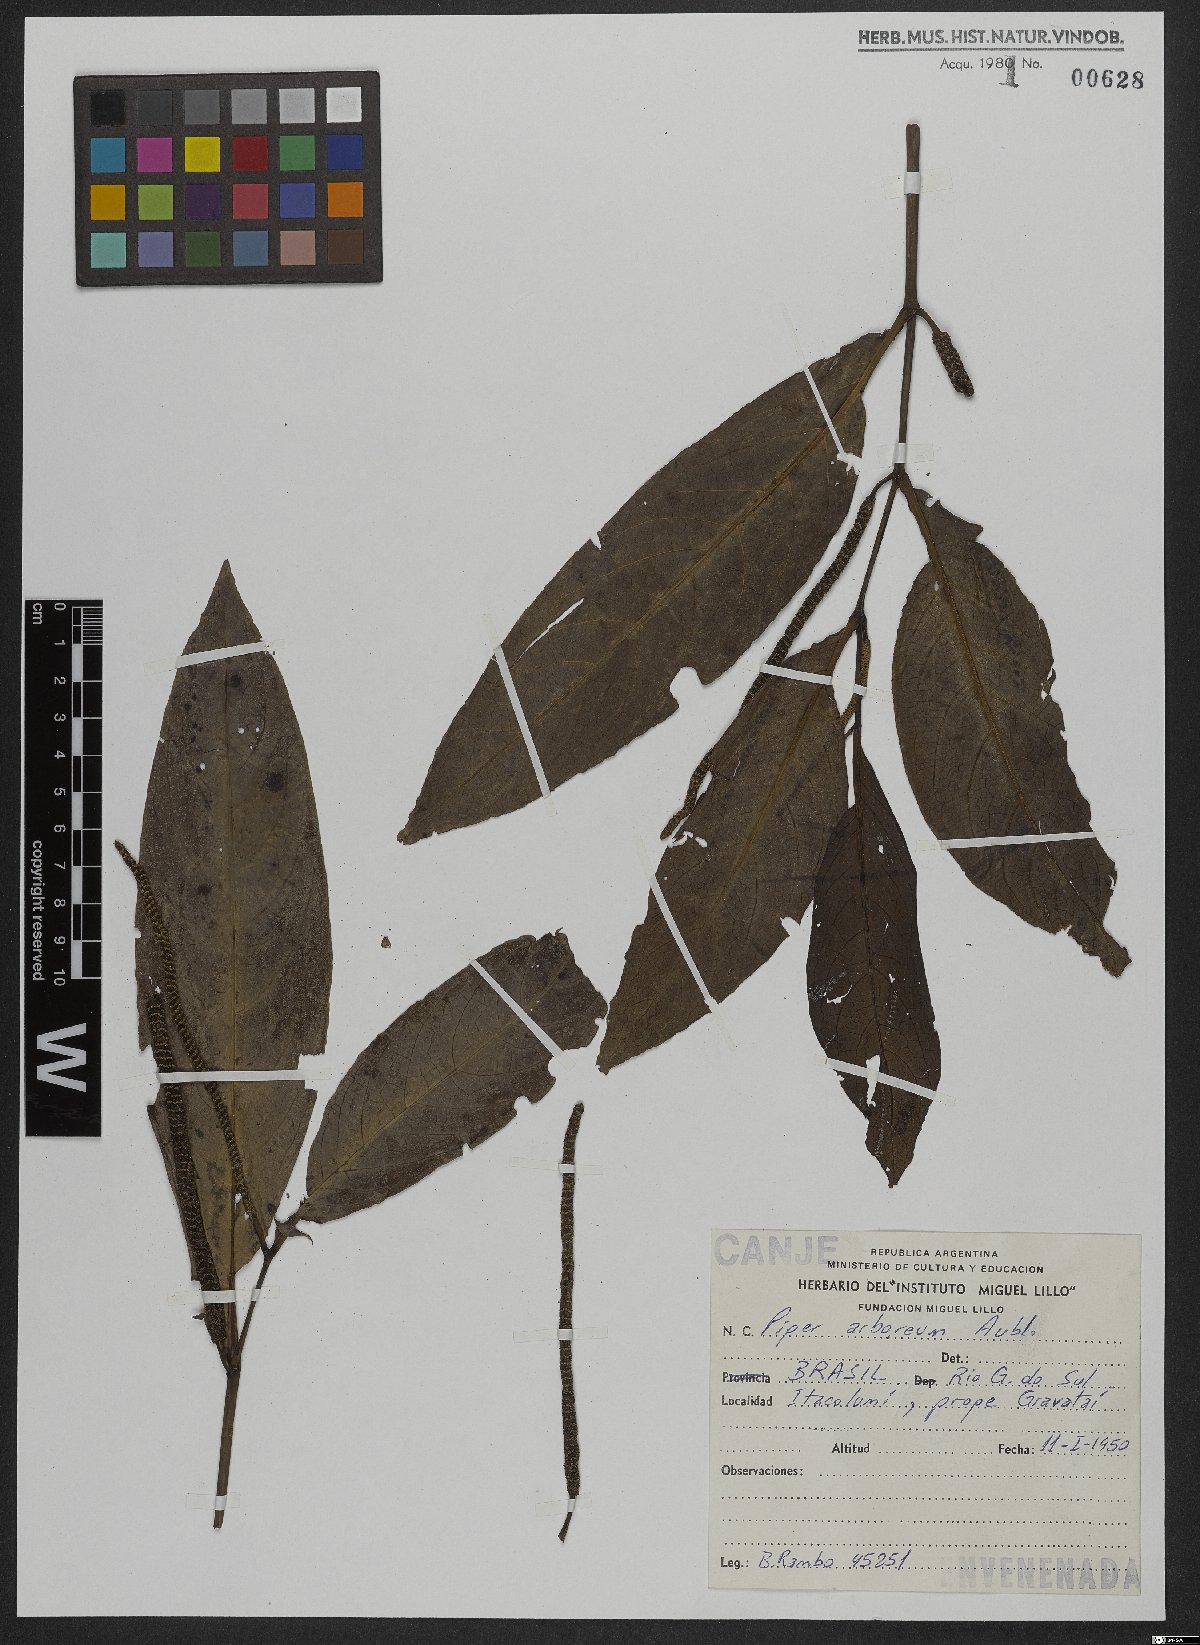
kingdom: Plantae
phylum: Tracheophyta
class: Magnoliopsida
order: Piperales
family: Piperaceae
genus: Piper
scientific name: Piper arboreum
